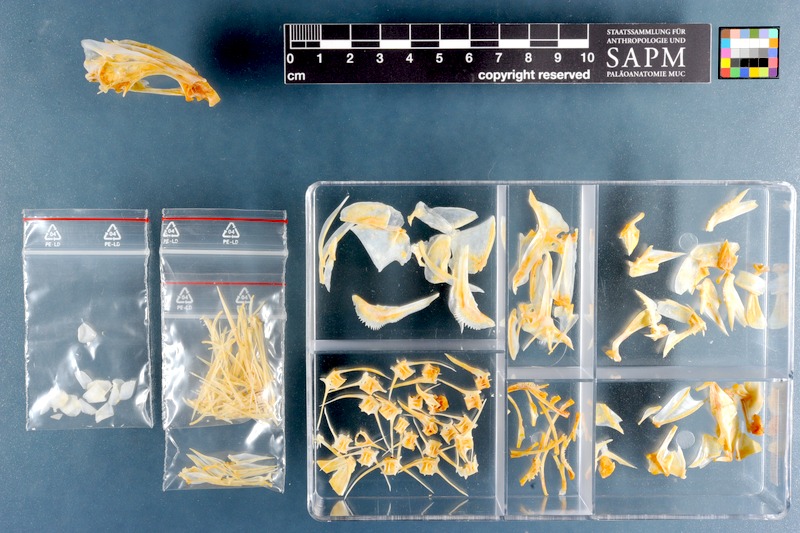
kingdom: Animalia
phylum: Chordata
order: Perciformes
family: Lutjanidae
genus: Lutjanus
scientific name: Lutjanus johnii
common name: John's snapper
